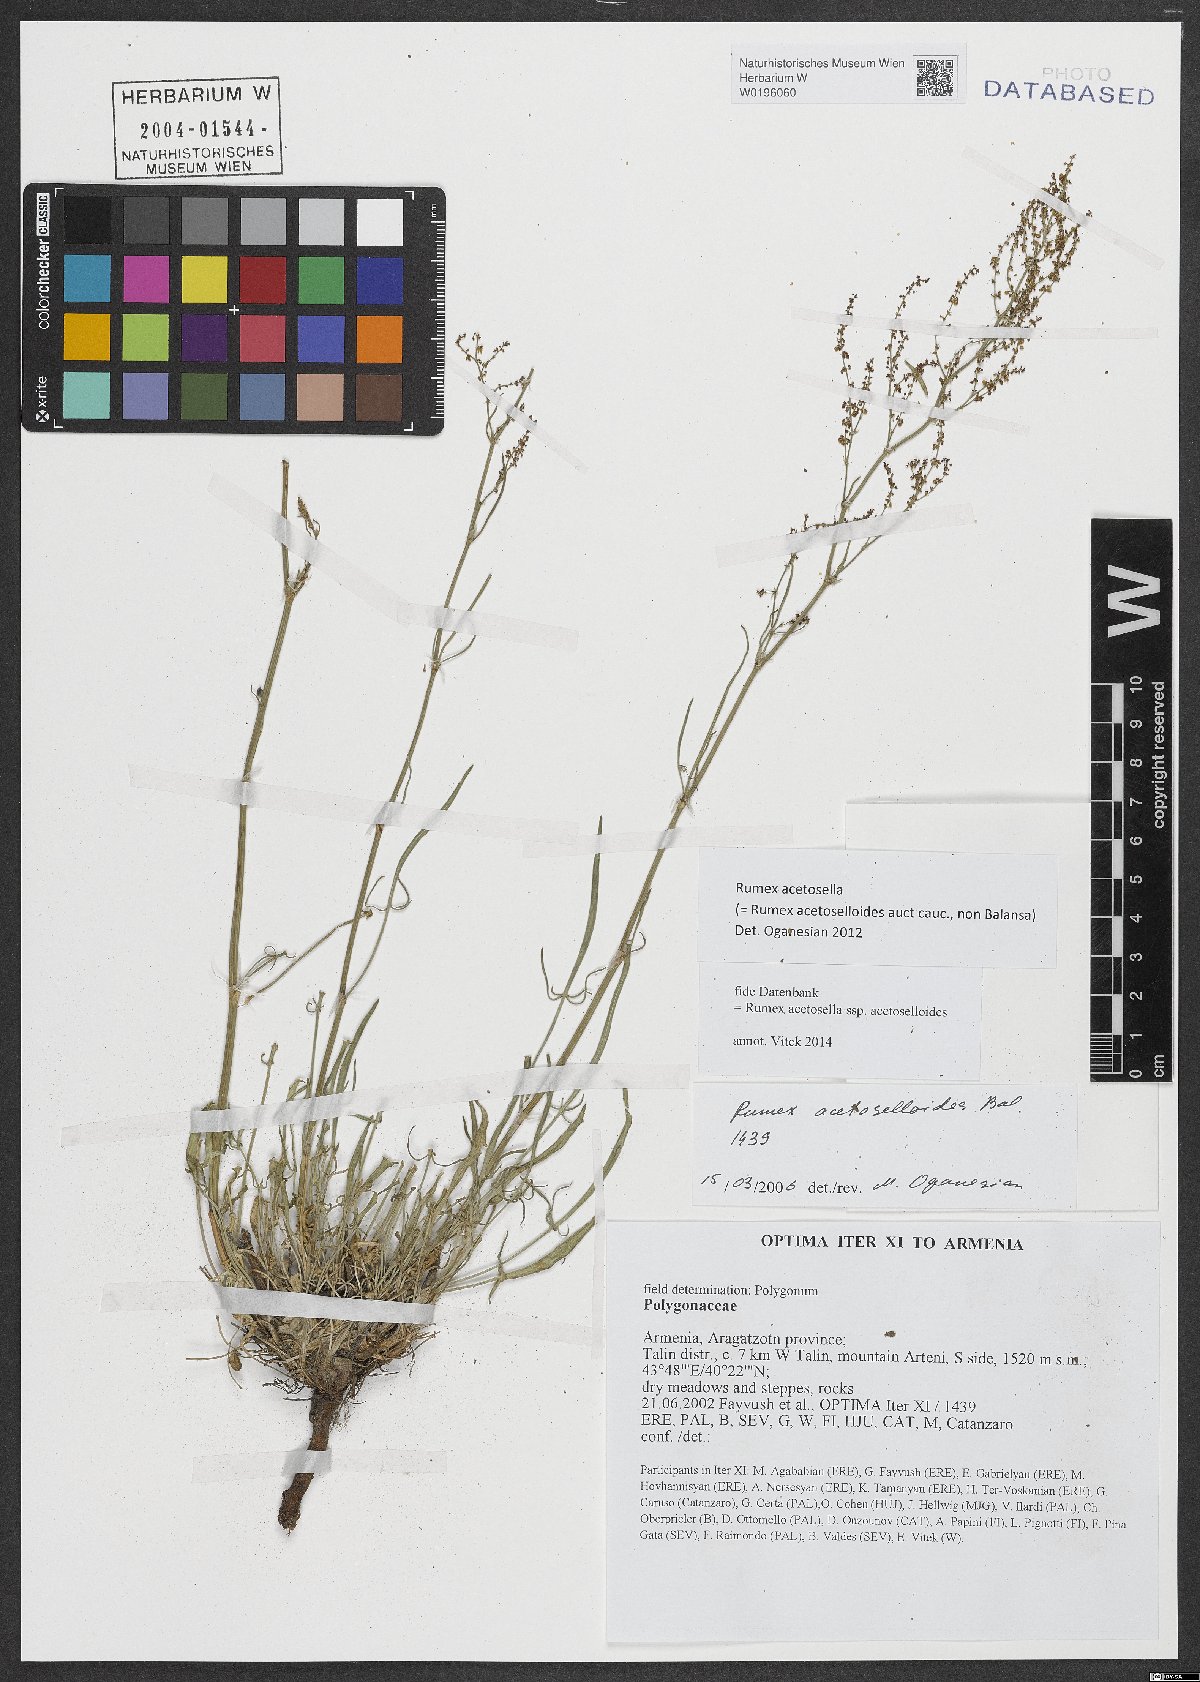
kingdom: Plantae
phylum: Tracheophyta
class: Magnoliopsida
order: Caryophyllales
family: Polygonaceae
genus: Rumex
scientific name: Rumex acetosella
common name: Common sheep sorrel
